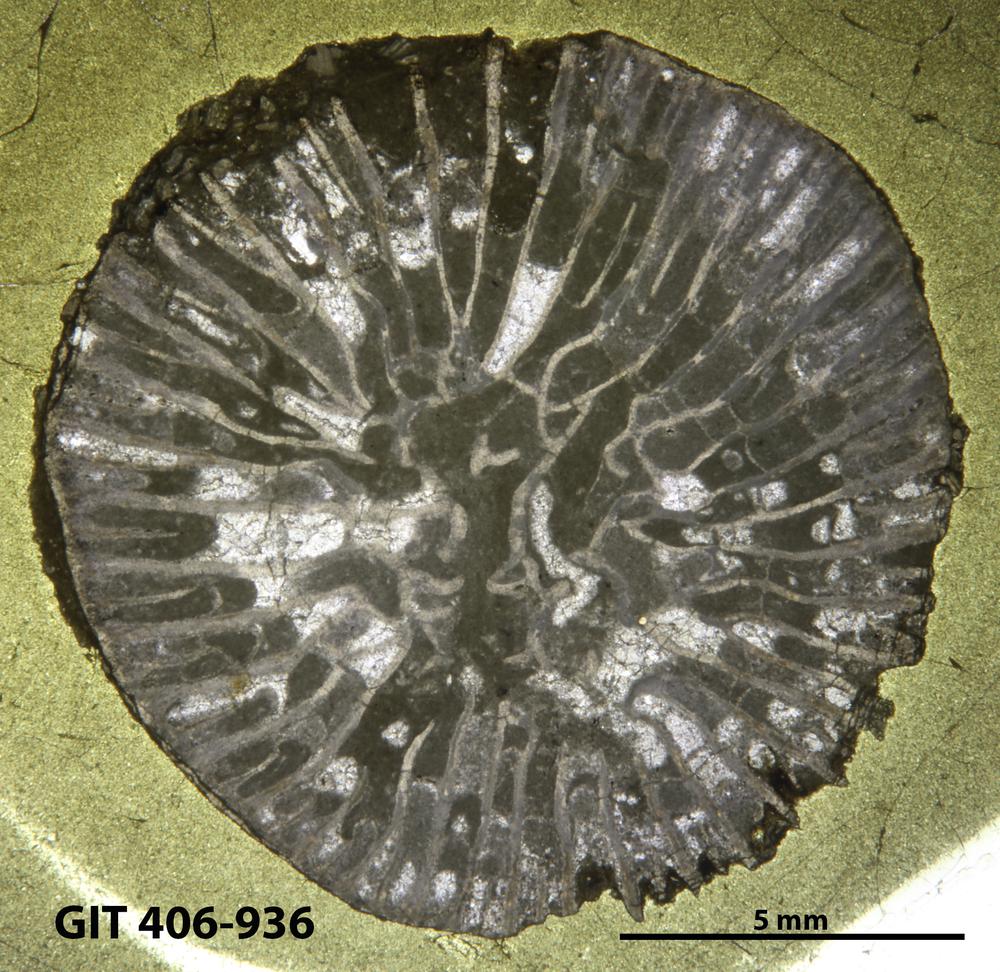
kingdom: Animalia
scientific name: Animalia
